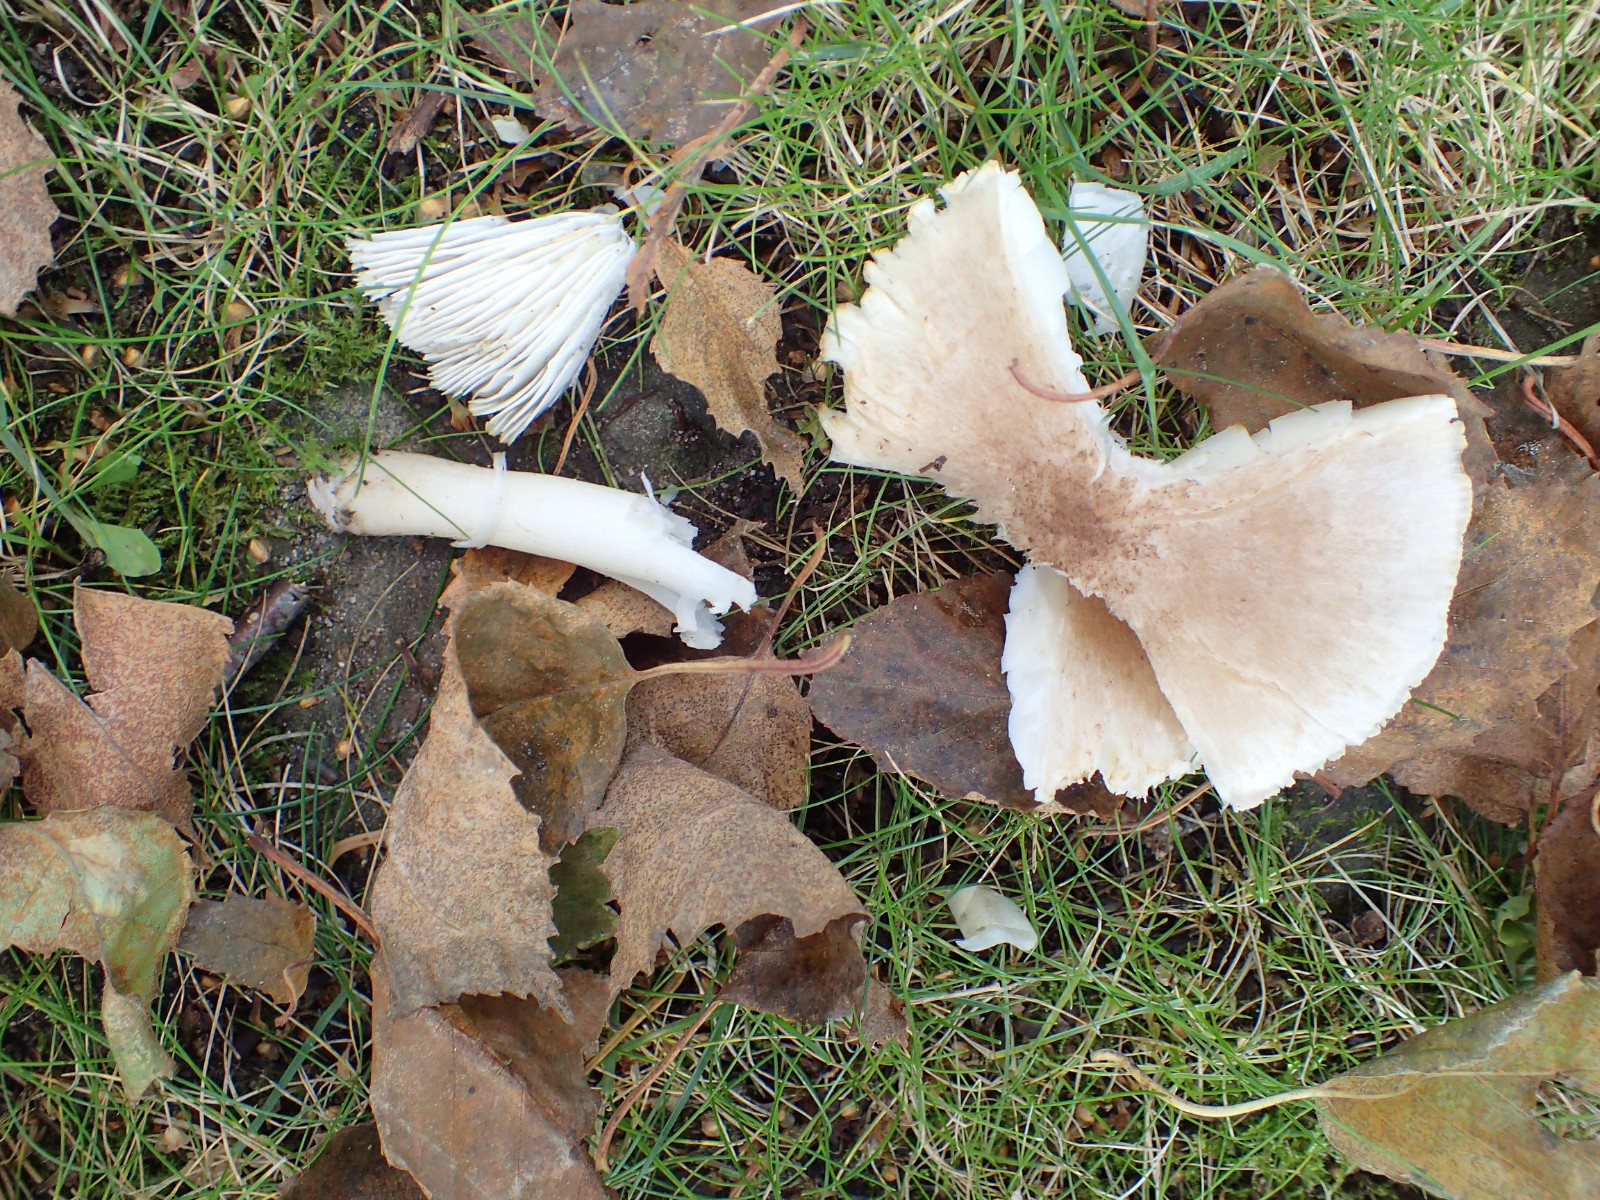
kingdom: Fungi
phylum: Basidiomycota
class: Agaricomycetes
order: Agaricales
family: Tricholomataceae
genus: Tricholoma
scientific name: Tricholoma scalpturatum
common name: gulplettet ridderhat
